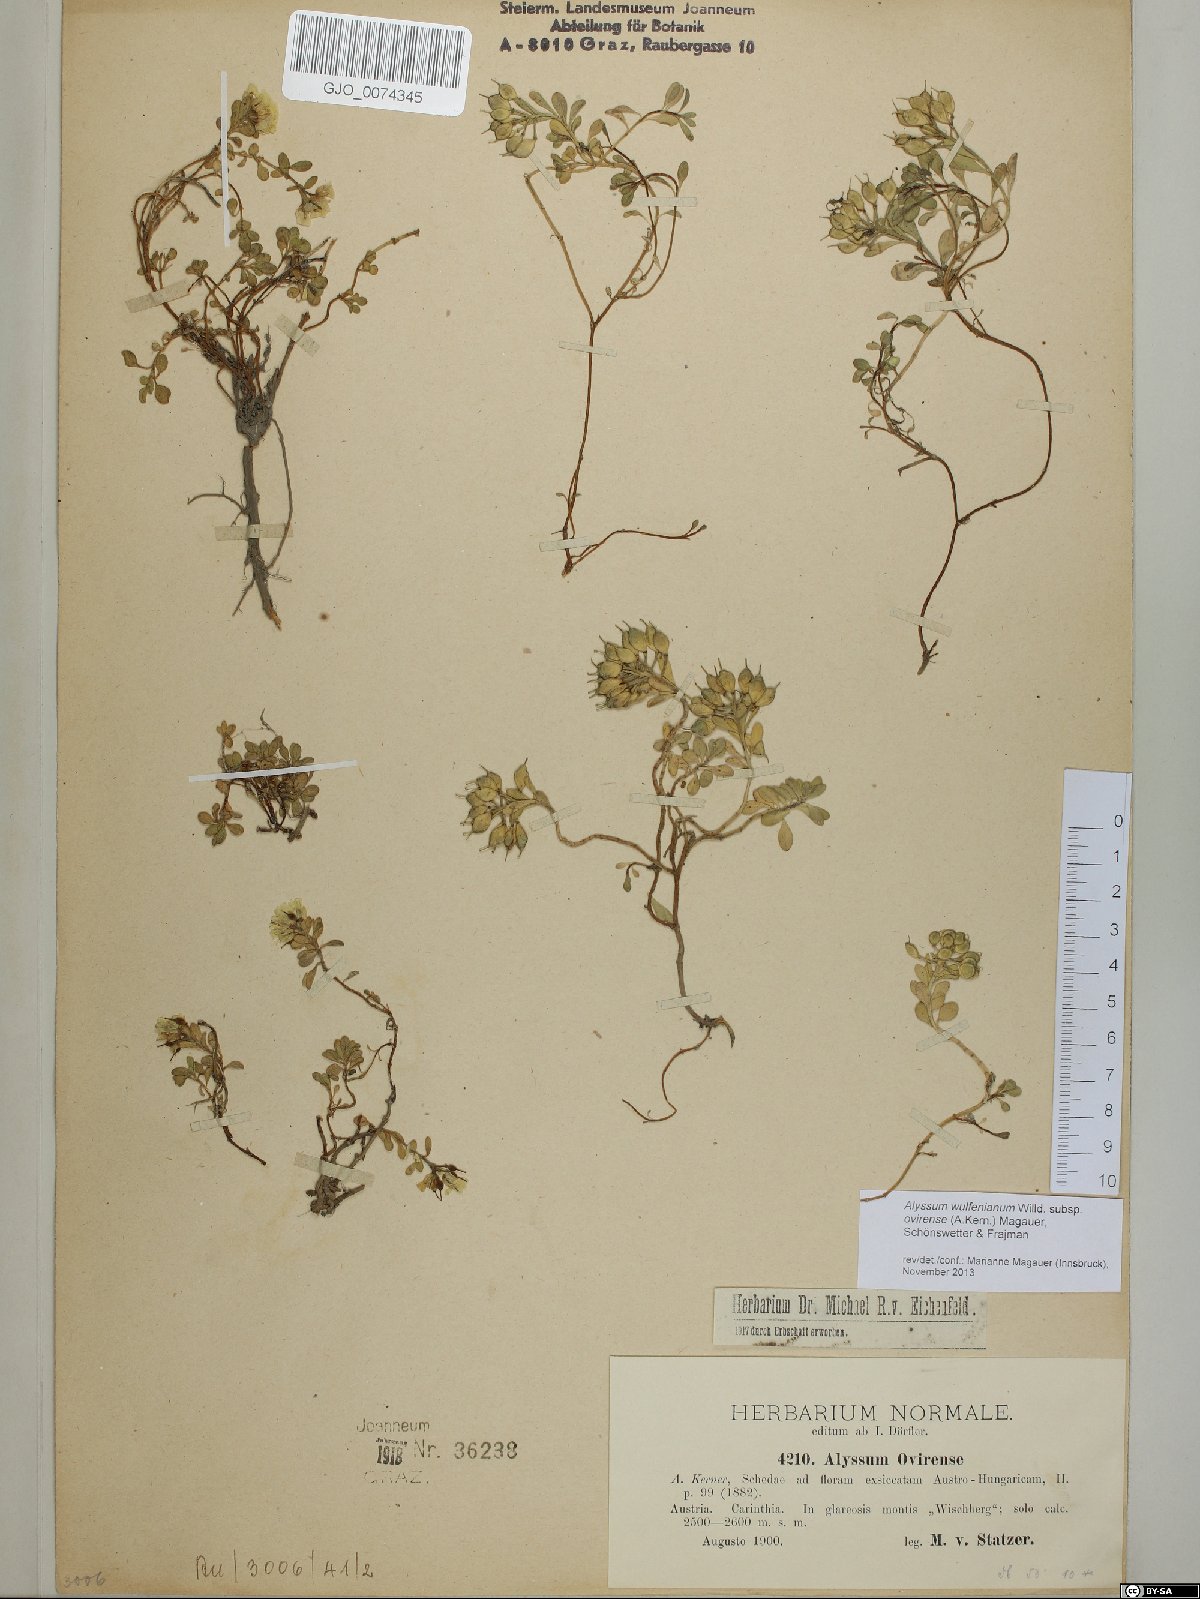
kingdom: Plantae
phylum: Tracheophyta
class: Magnoliopsida
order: Brassicales
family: Brassicaceae
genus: Alyssum
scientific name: Alyssum wulfenianum
